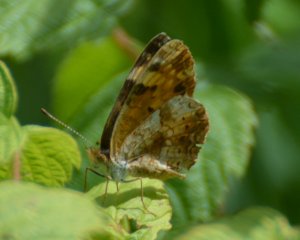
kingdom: Animalia
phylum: Arthropoda
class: Insecta
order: Lepidoptera
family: Nymphalidae
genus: Phyciodes
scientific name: Phyciodes tharos
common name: Northern Crescent
